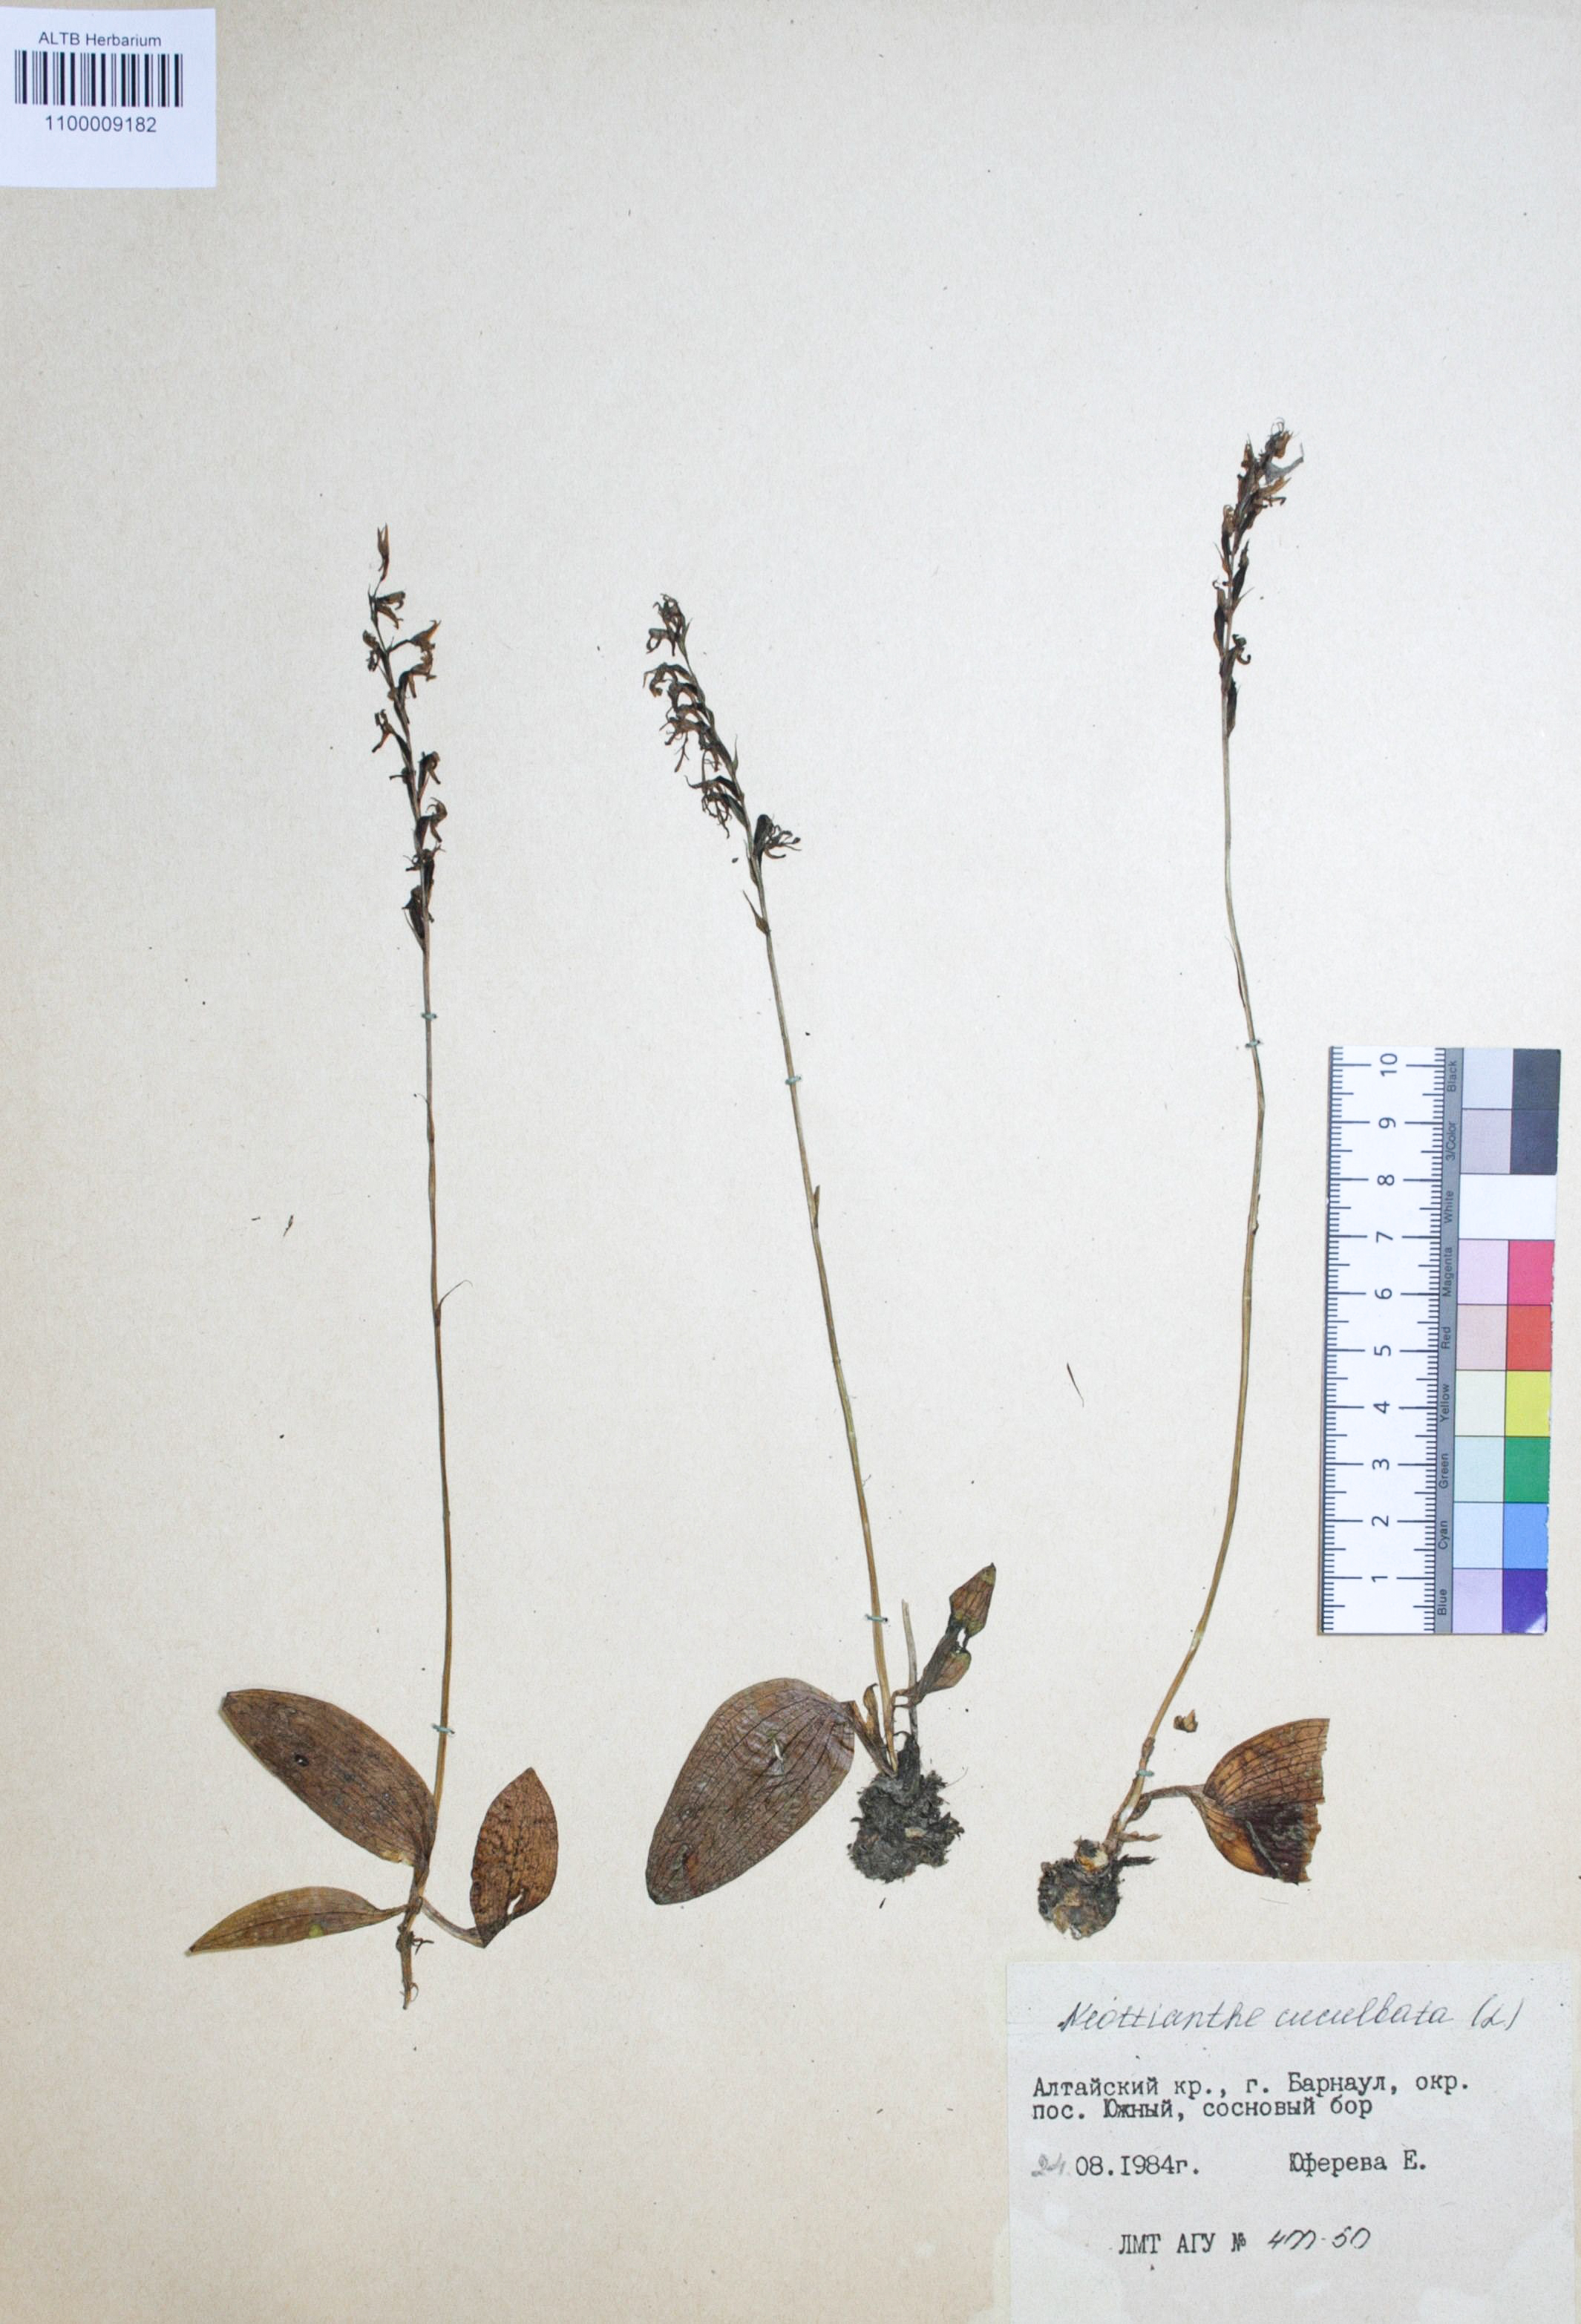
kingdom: Plantae
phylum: Tracheophyta
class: Liliopsida
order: Asparagales
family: Orchidaceae
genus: Hemipilia
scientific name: Hemipilia cucullata
